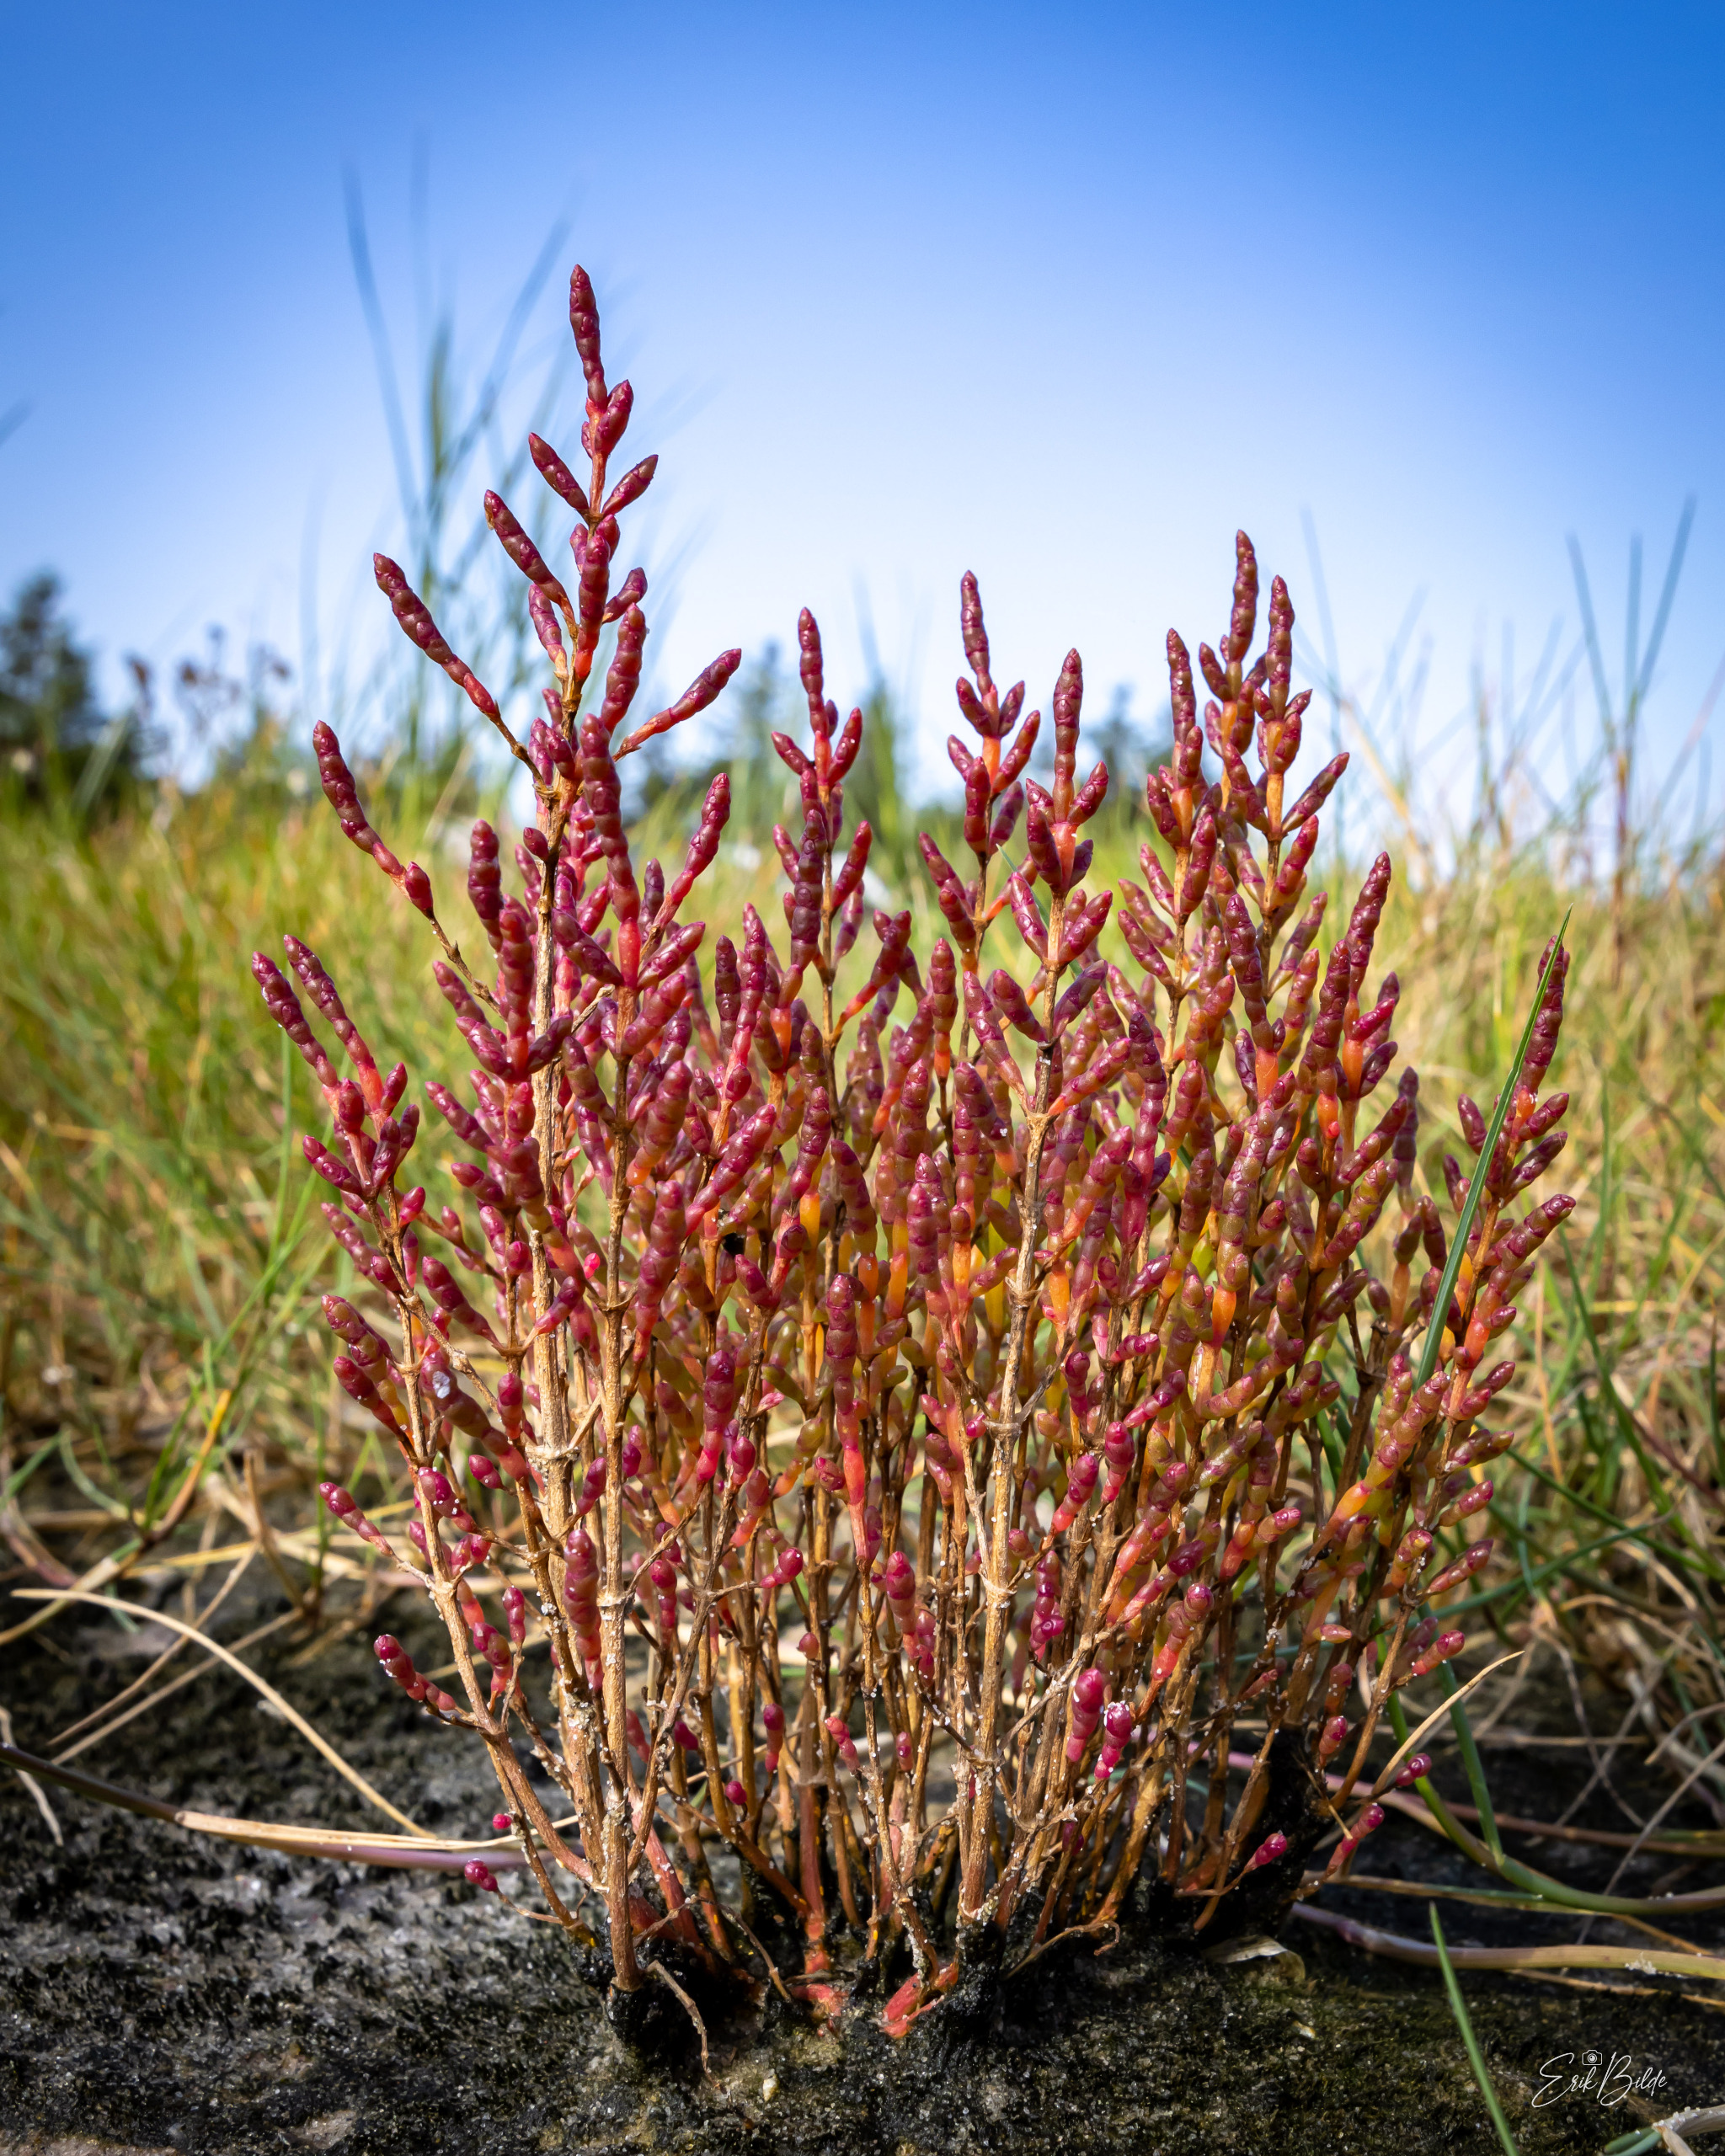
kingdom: Plantae
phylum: Tracheophyta
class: Magnoliopsida
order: Caryophyllales
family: Amaranthaceae
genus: Salicornia
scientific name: Salicornia europaea
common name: Almindelig salturt
